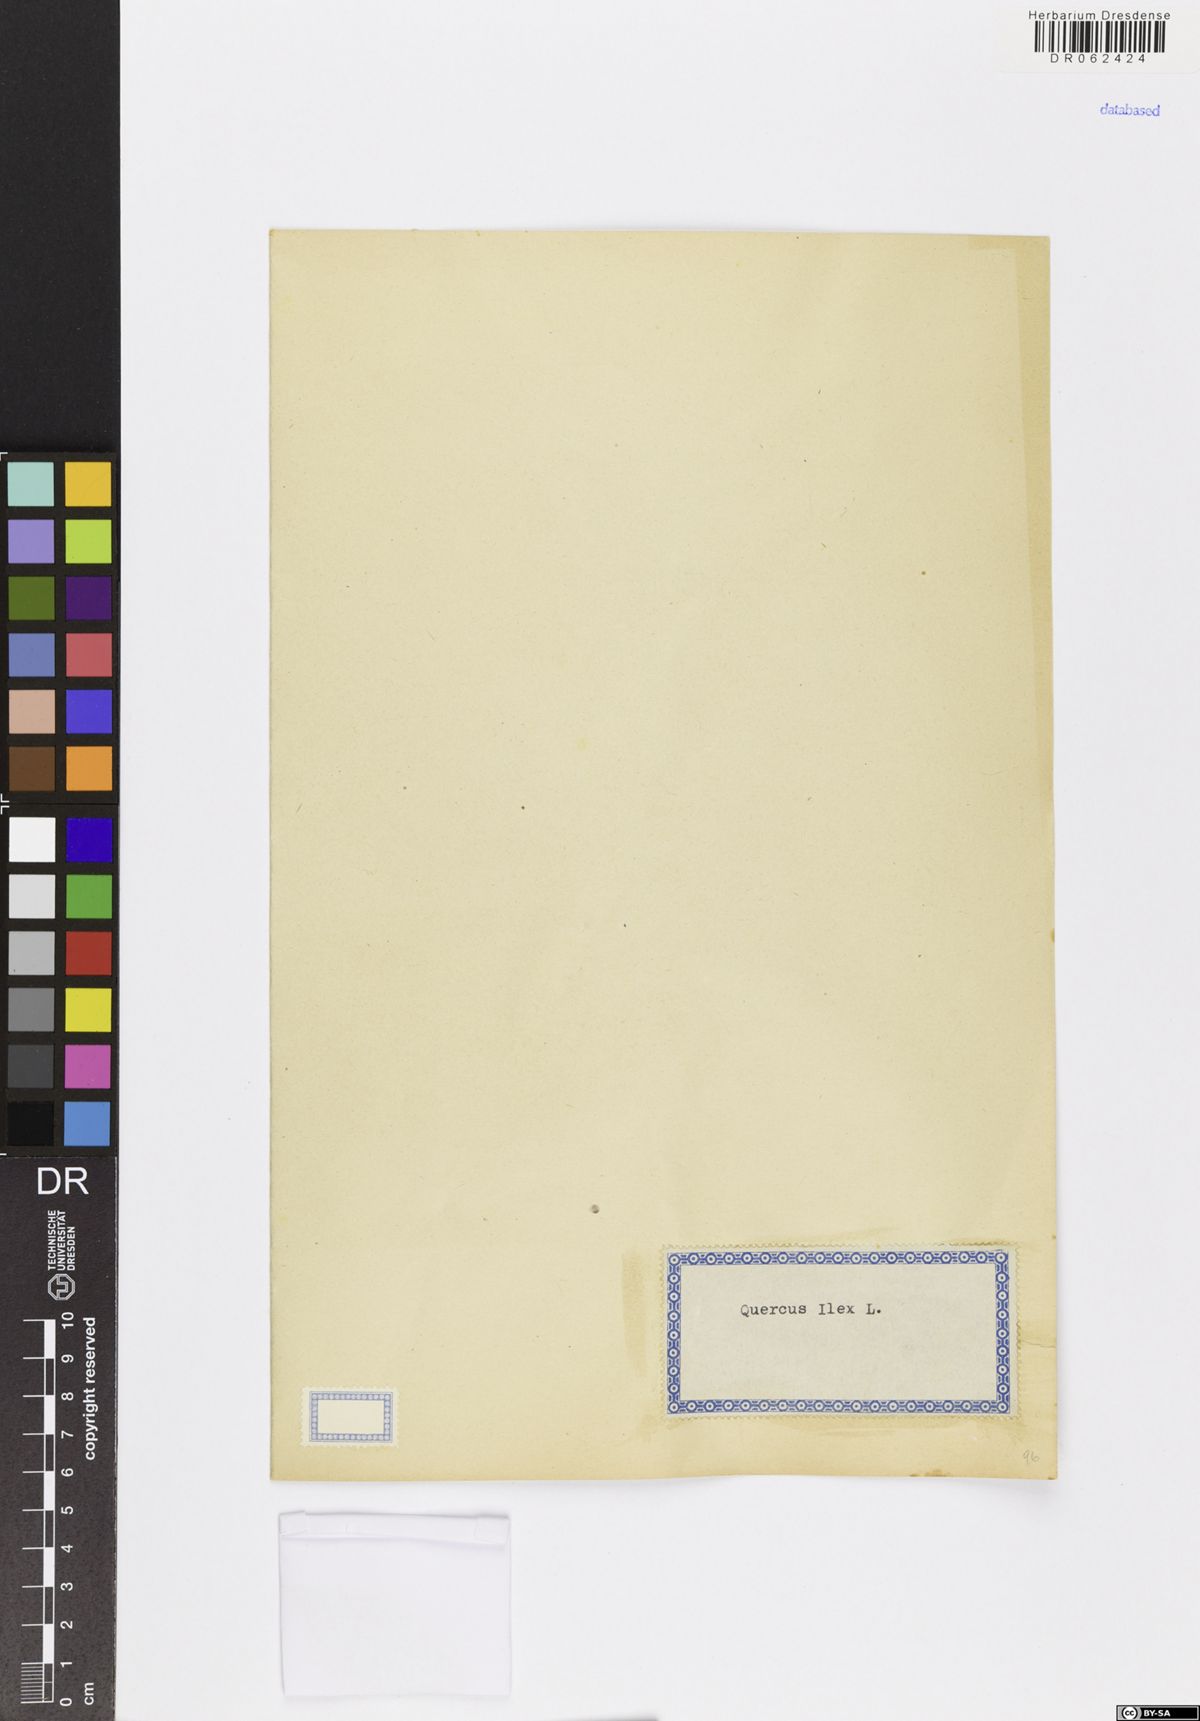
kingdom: Plantae
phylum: Tracheophyta
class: Magnoliopsida
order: Fagales
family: Fagaceae
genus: Quercus
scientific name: Quercus ilex
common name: Evergreen oak
